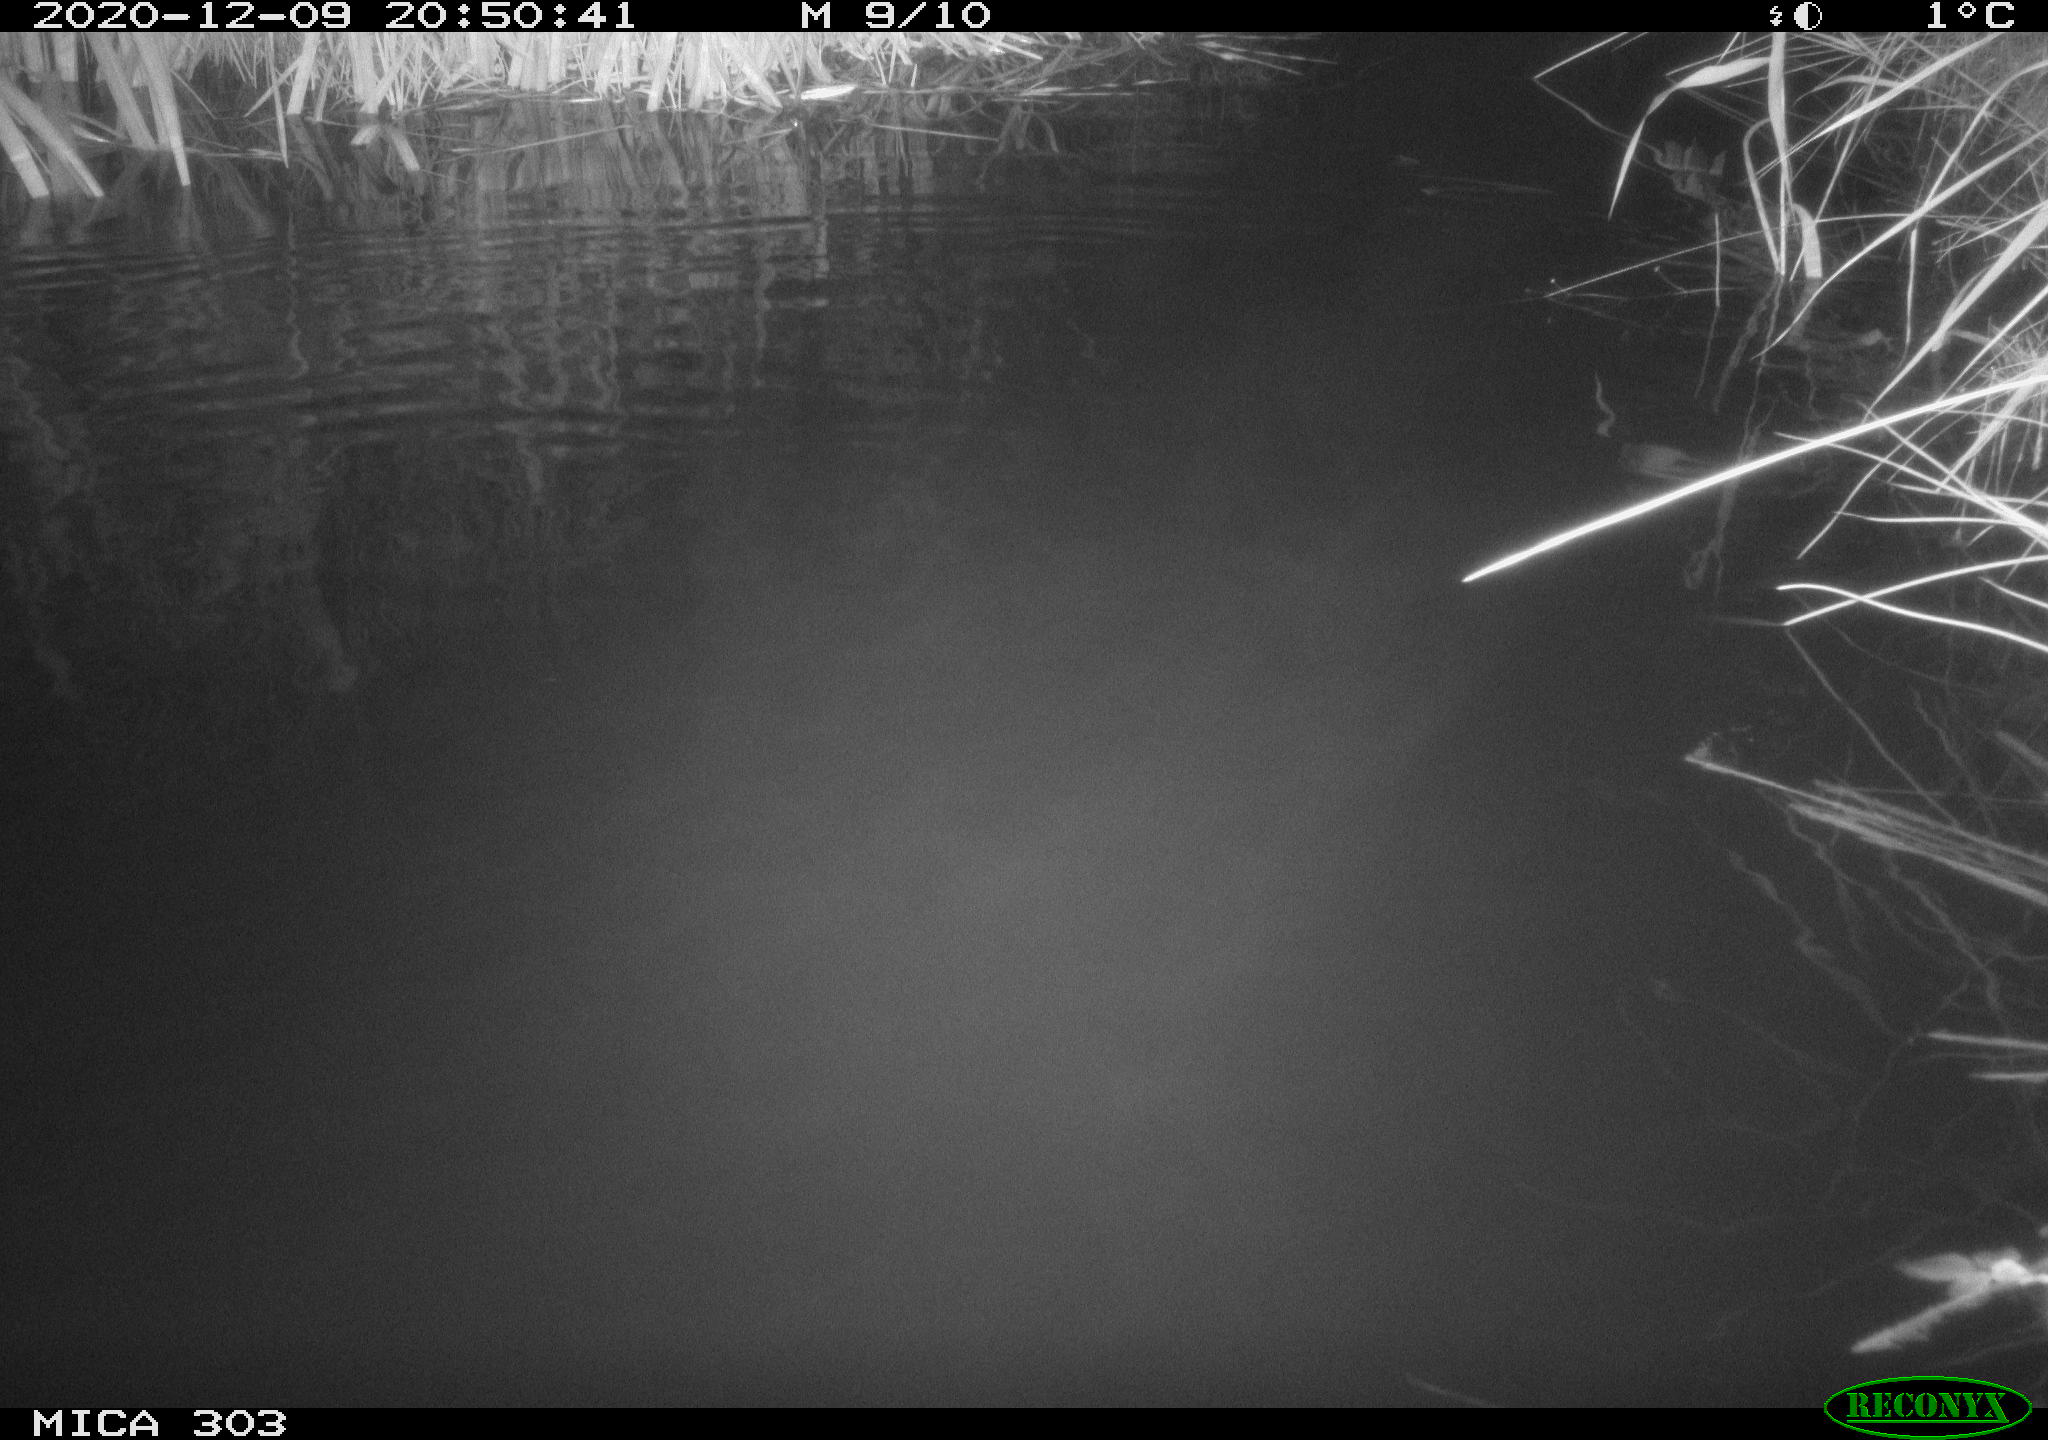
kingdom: Animalia
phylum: Chordata
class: Mammalia
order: Rodentia
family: Muridae
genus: Rattus
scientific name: Rattus norvegicus
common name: Brown rat
